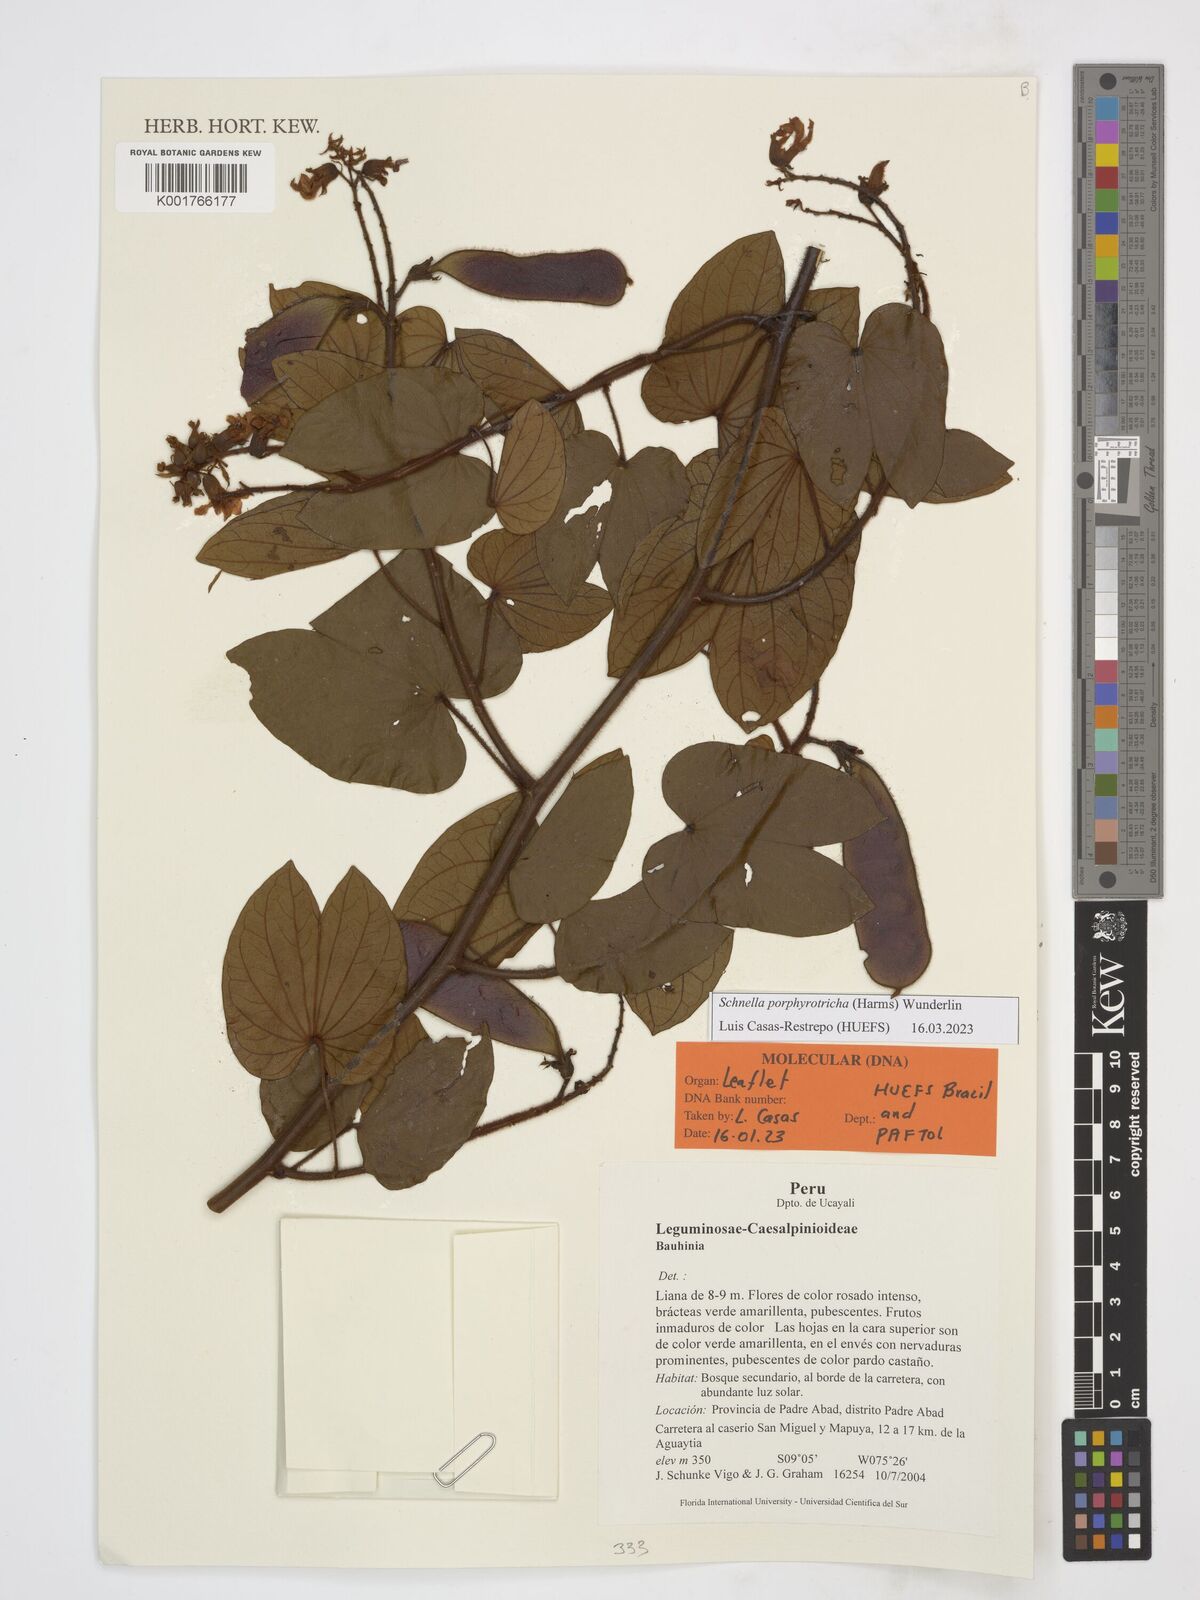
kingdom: Plantae
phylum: Tracheophyta
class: Magnoliopsida
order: Fabales
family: Fabaceae
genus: Schnella
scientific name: Schnella porphyrotricha
